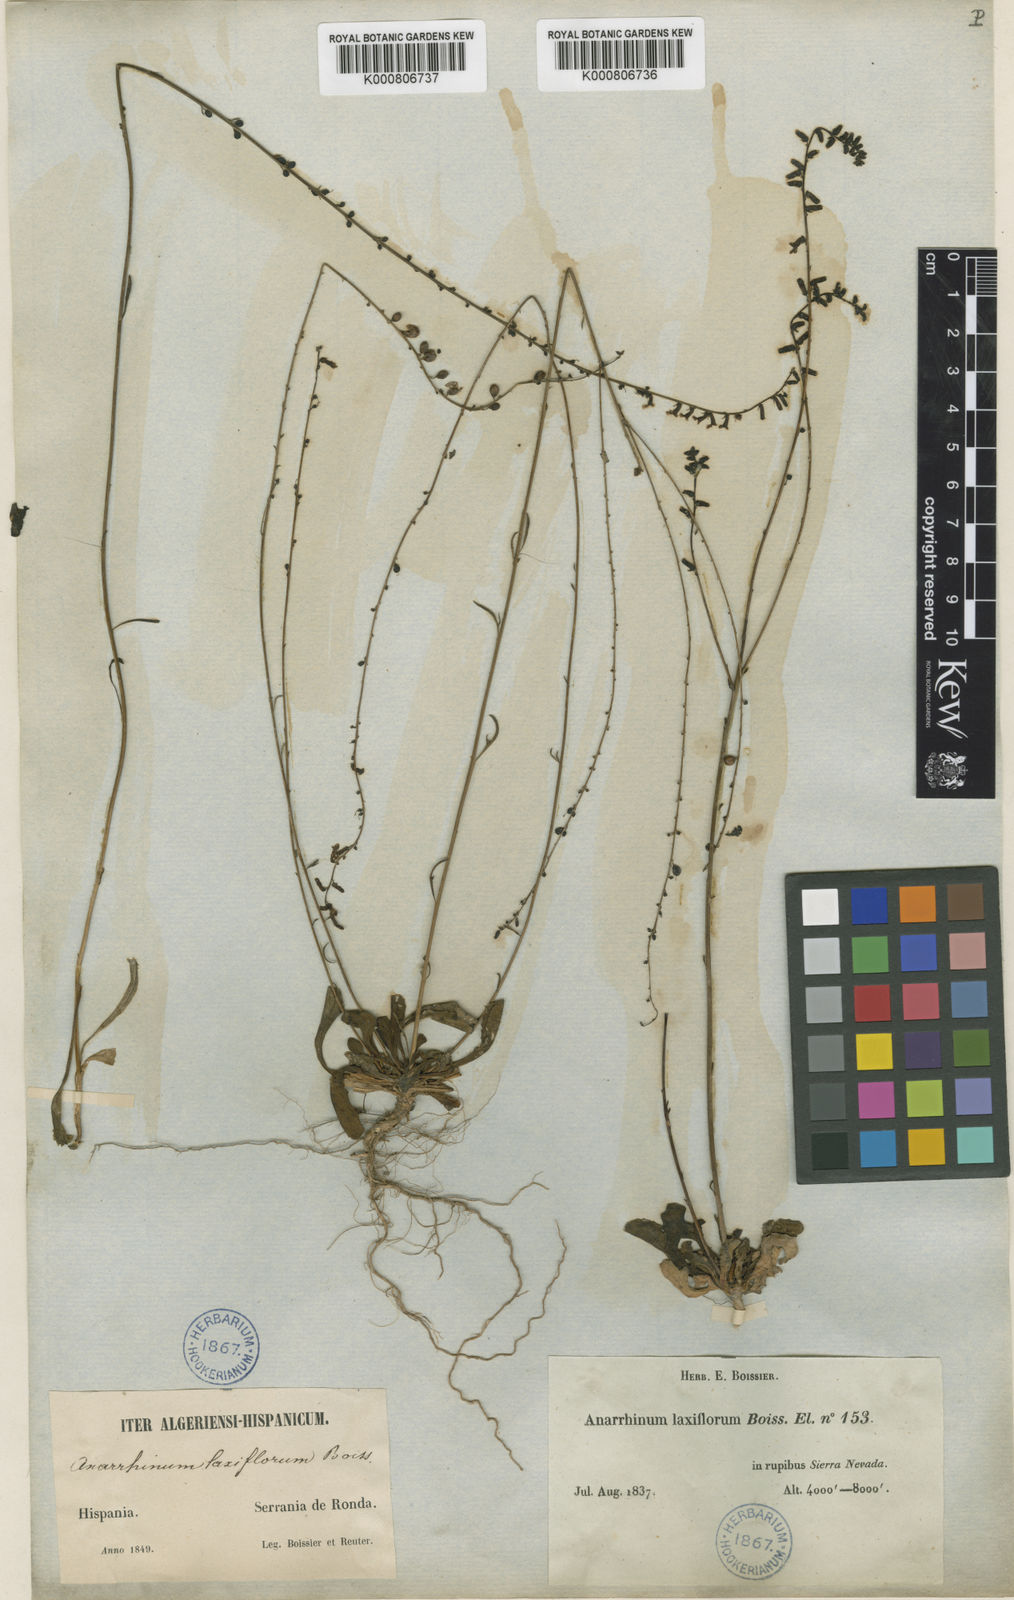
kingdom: Plantae
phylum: Tracheophyta
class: Magnoliopsida
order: Lamiales
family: Plantaginaceae
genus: Anarrhinum
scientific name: Anarrhinum laxiflorum
